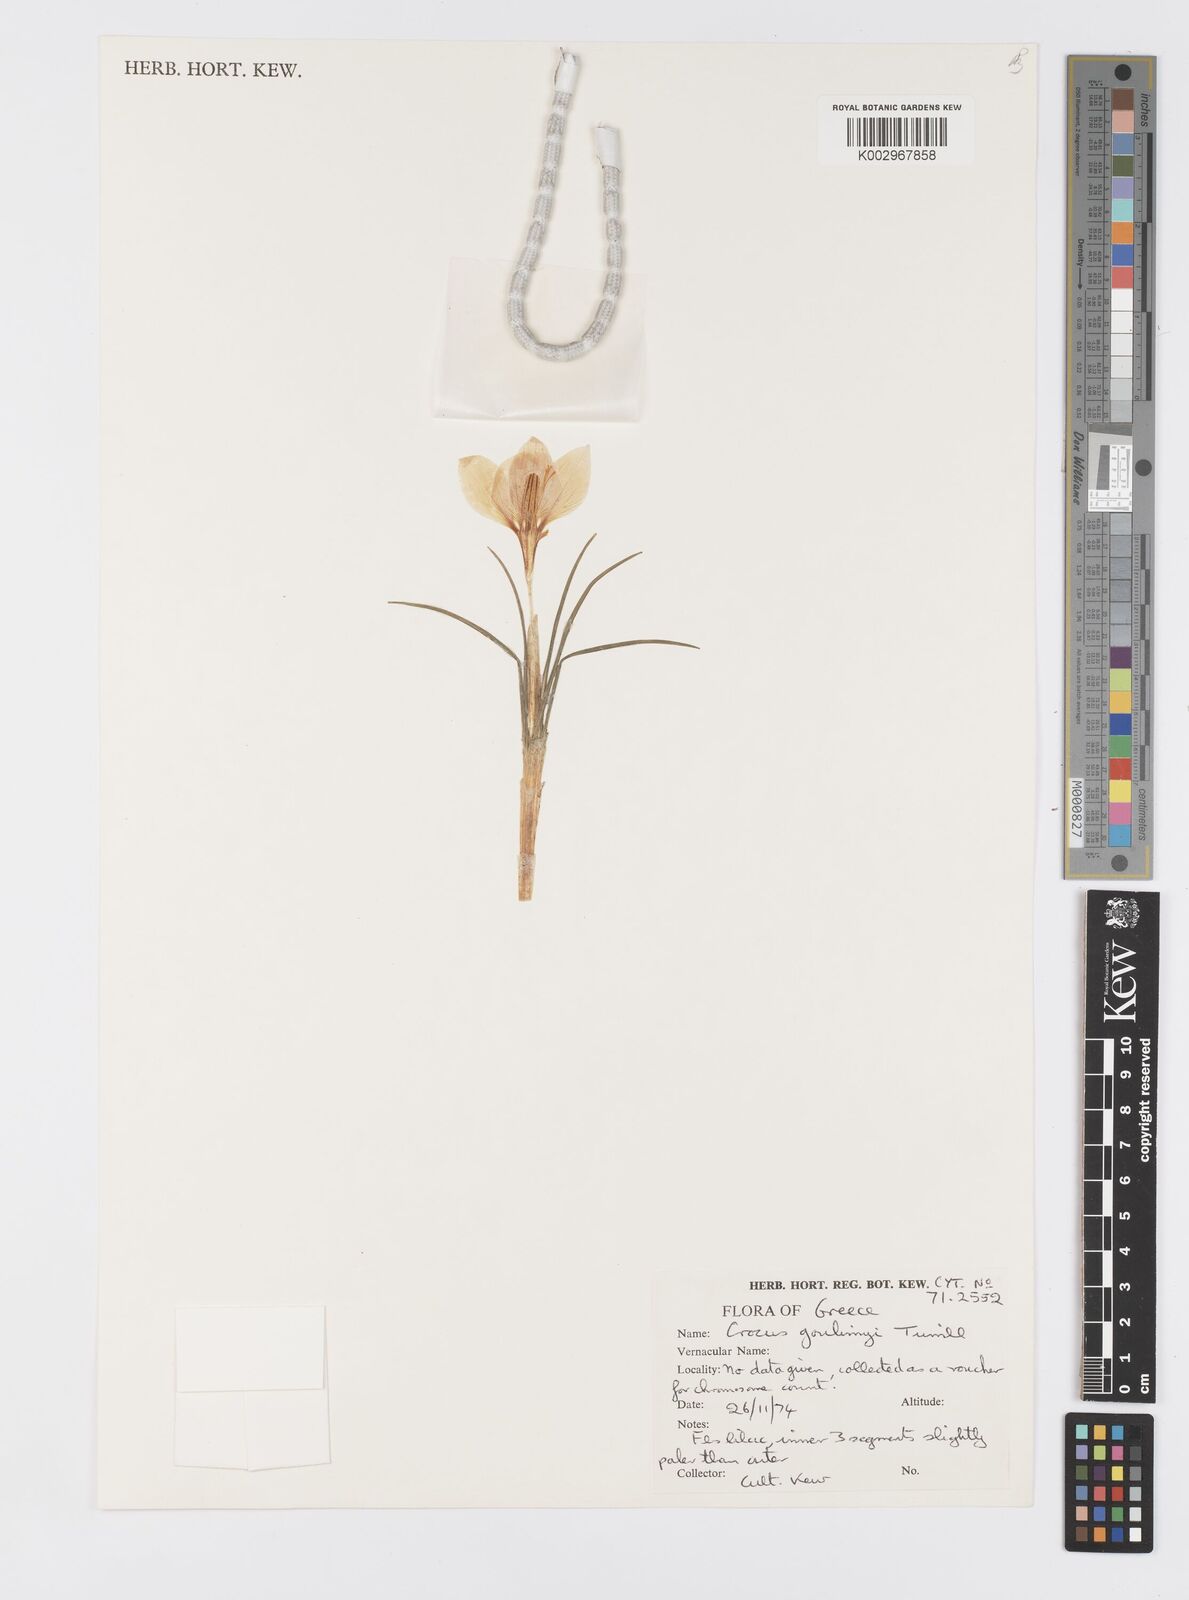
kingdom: Plantae
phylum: Tracheophyta
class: Liliopsida
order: Asparagales
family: Iridaceae
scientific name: Iridaceae
